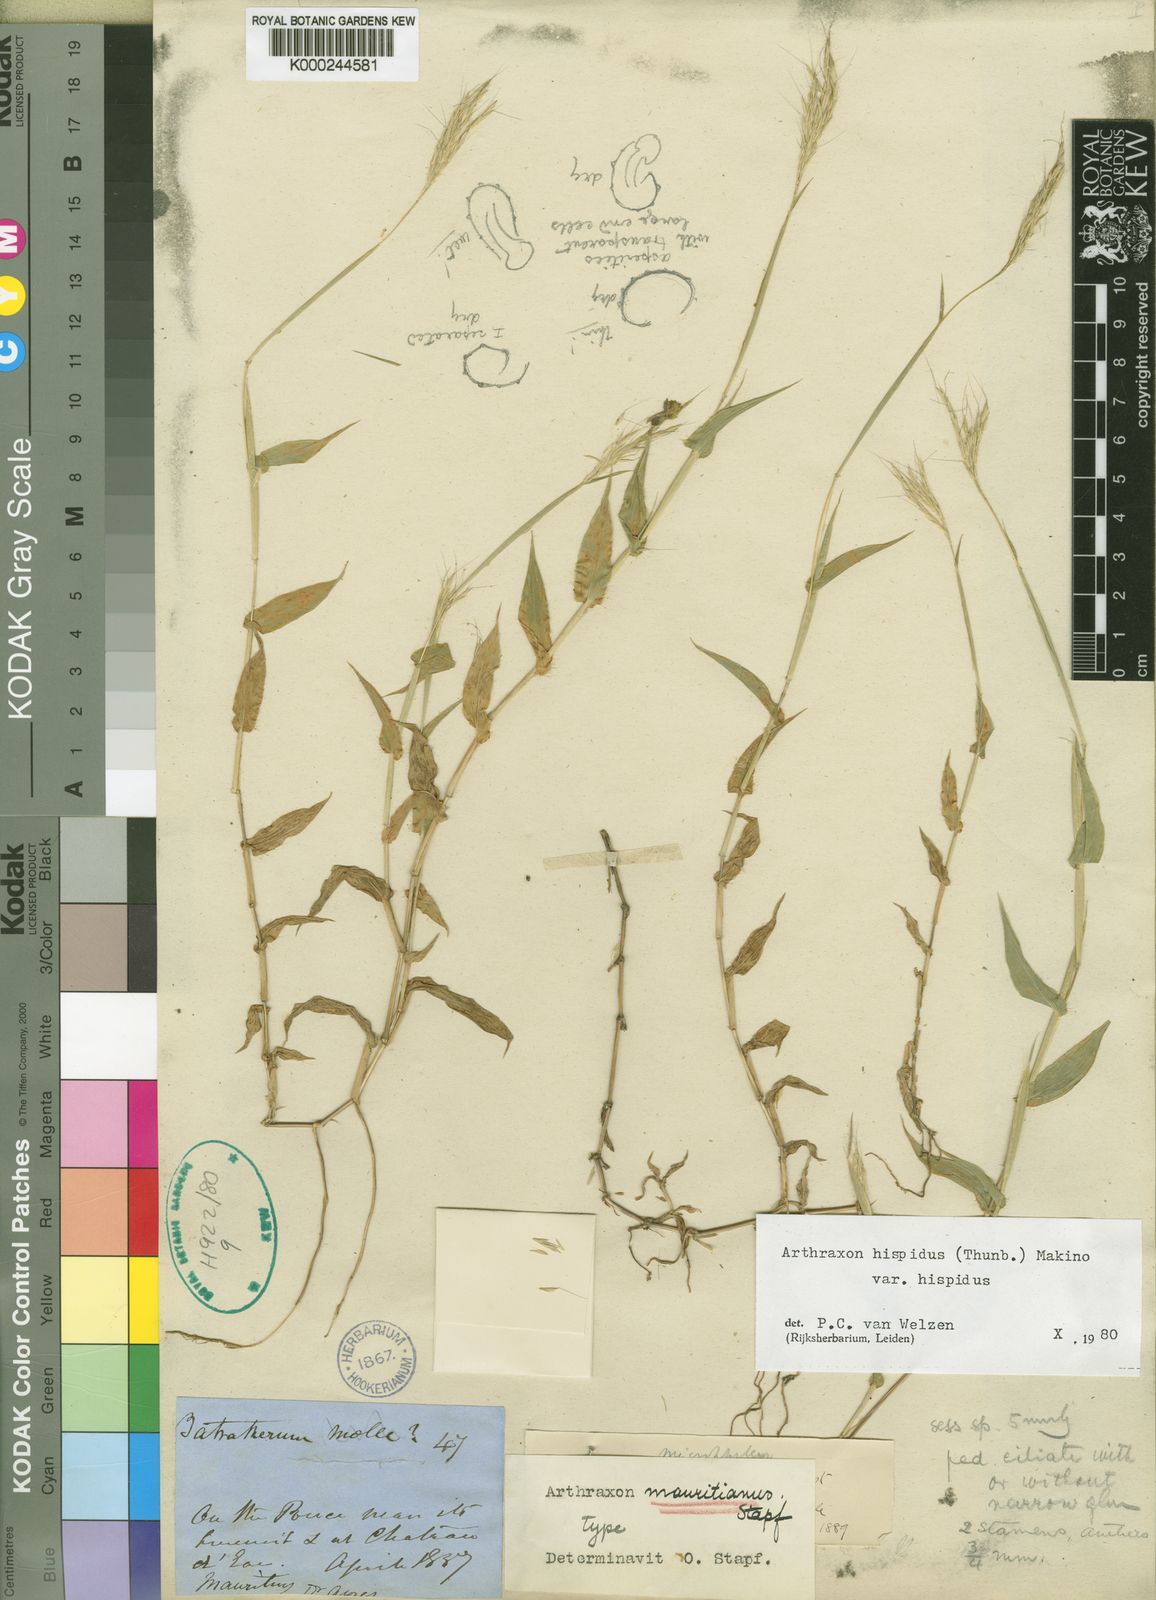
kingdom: Plantae
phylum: Tracheophyta
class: Liliopsida
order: Poales
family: Poaceae
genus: Arthraxon
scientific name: Arthraxon hispidus
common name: Small carpgrass
